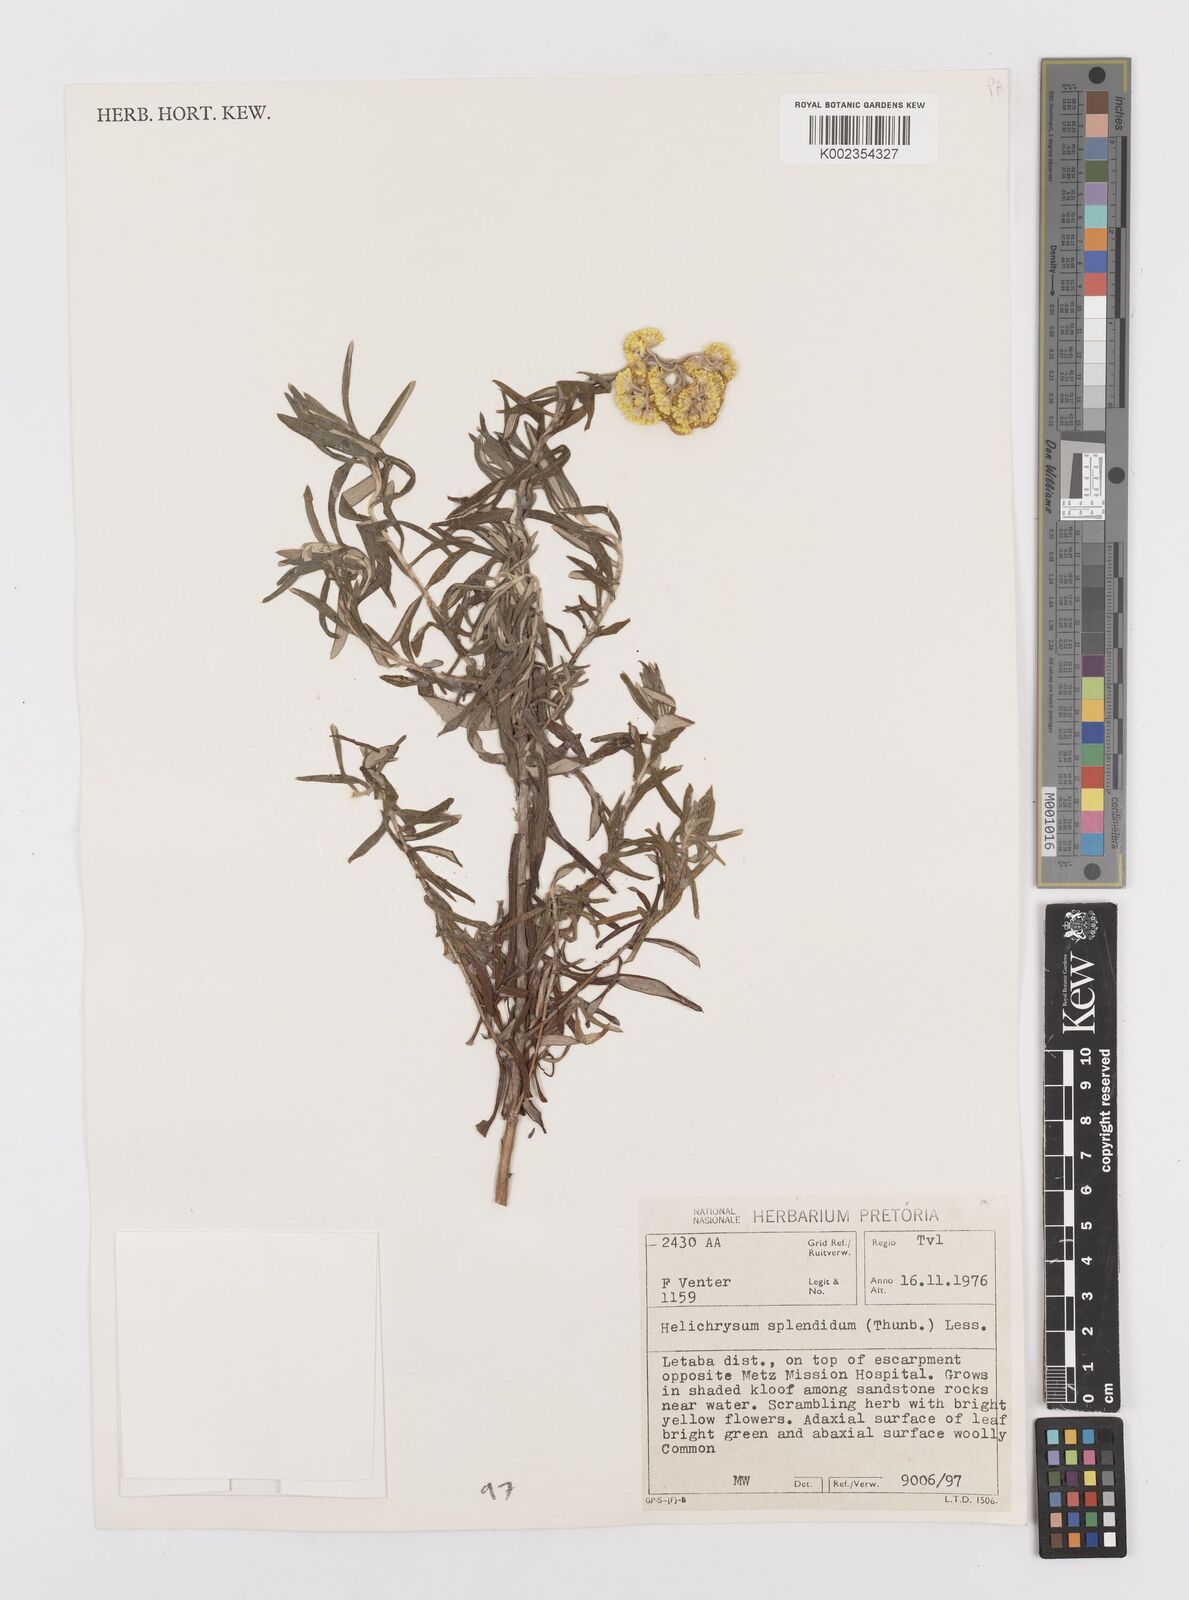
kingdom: Plantae
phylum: Tracheophyta
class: Magnoliopsida
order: Asterales
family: Asteraceae
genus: Helichrysum
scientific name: Helichrysum splendidum
